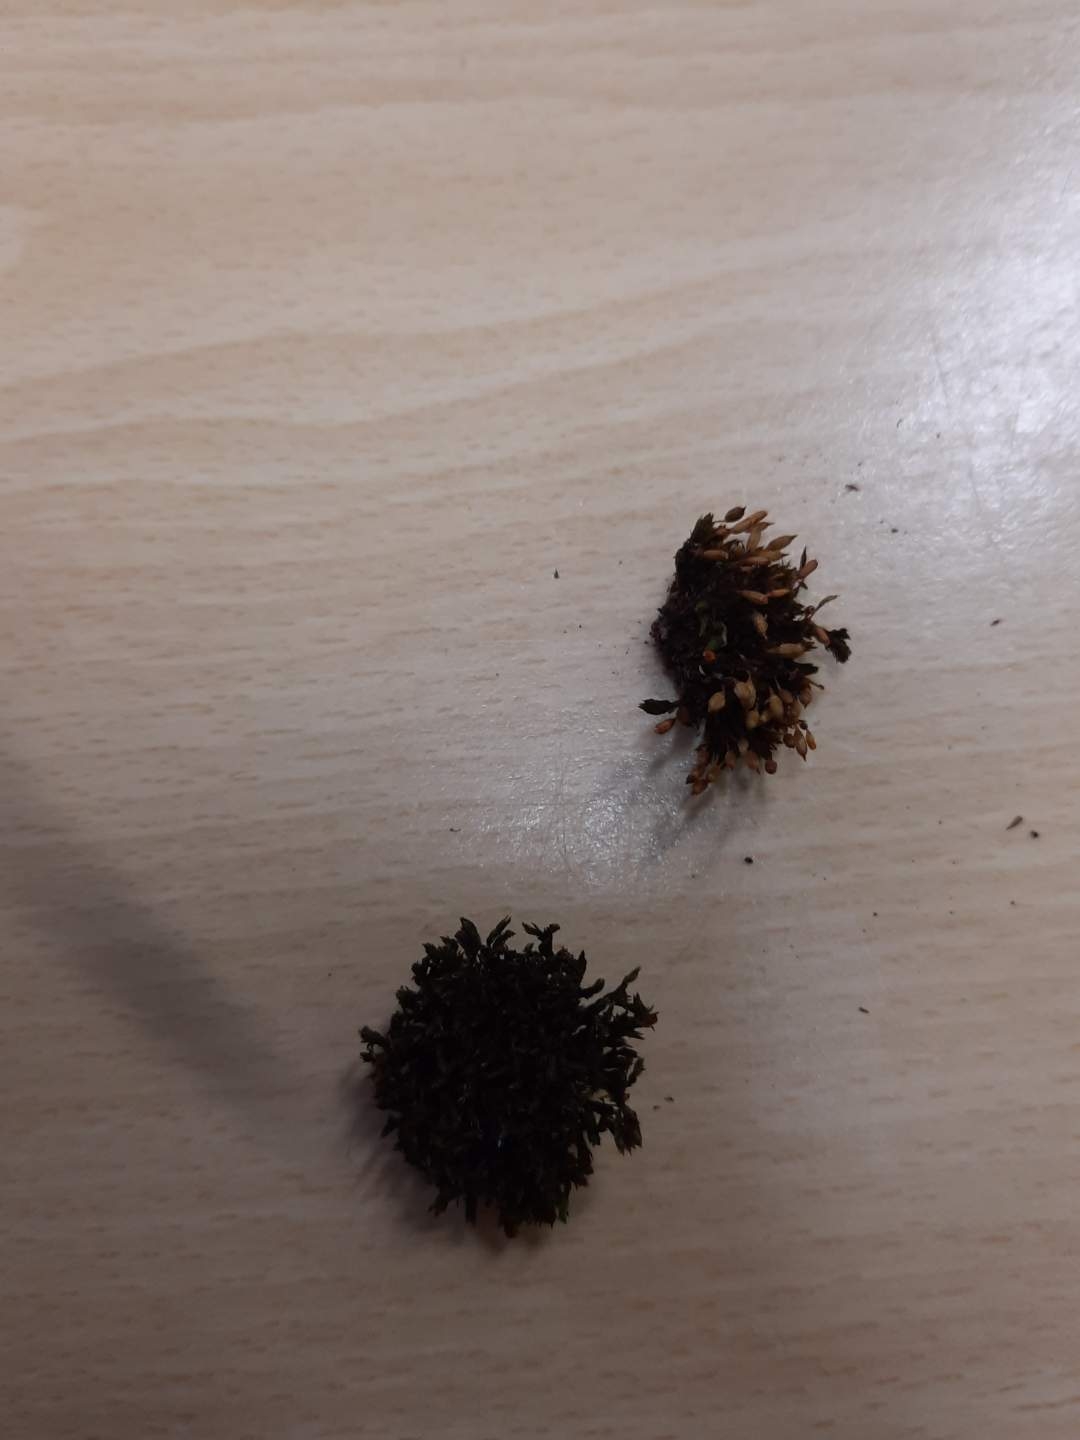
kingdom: Plantae
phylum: Bryophyta
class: Bryopsida
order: Orthotrichales
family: Orthotrichaceae
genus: Orthotrichum
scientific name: Orthotrichum anomalum
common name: Mørk furehætte
